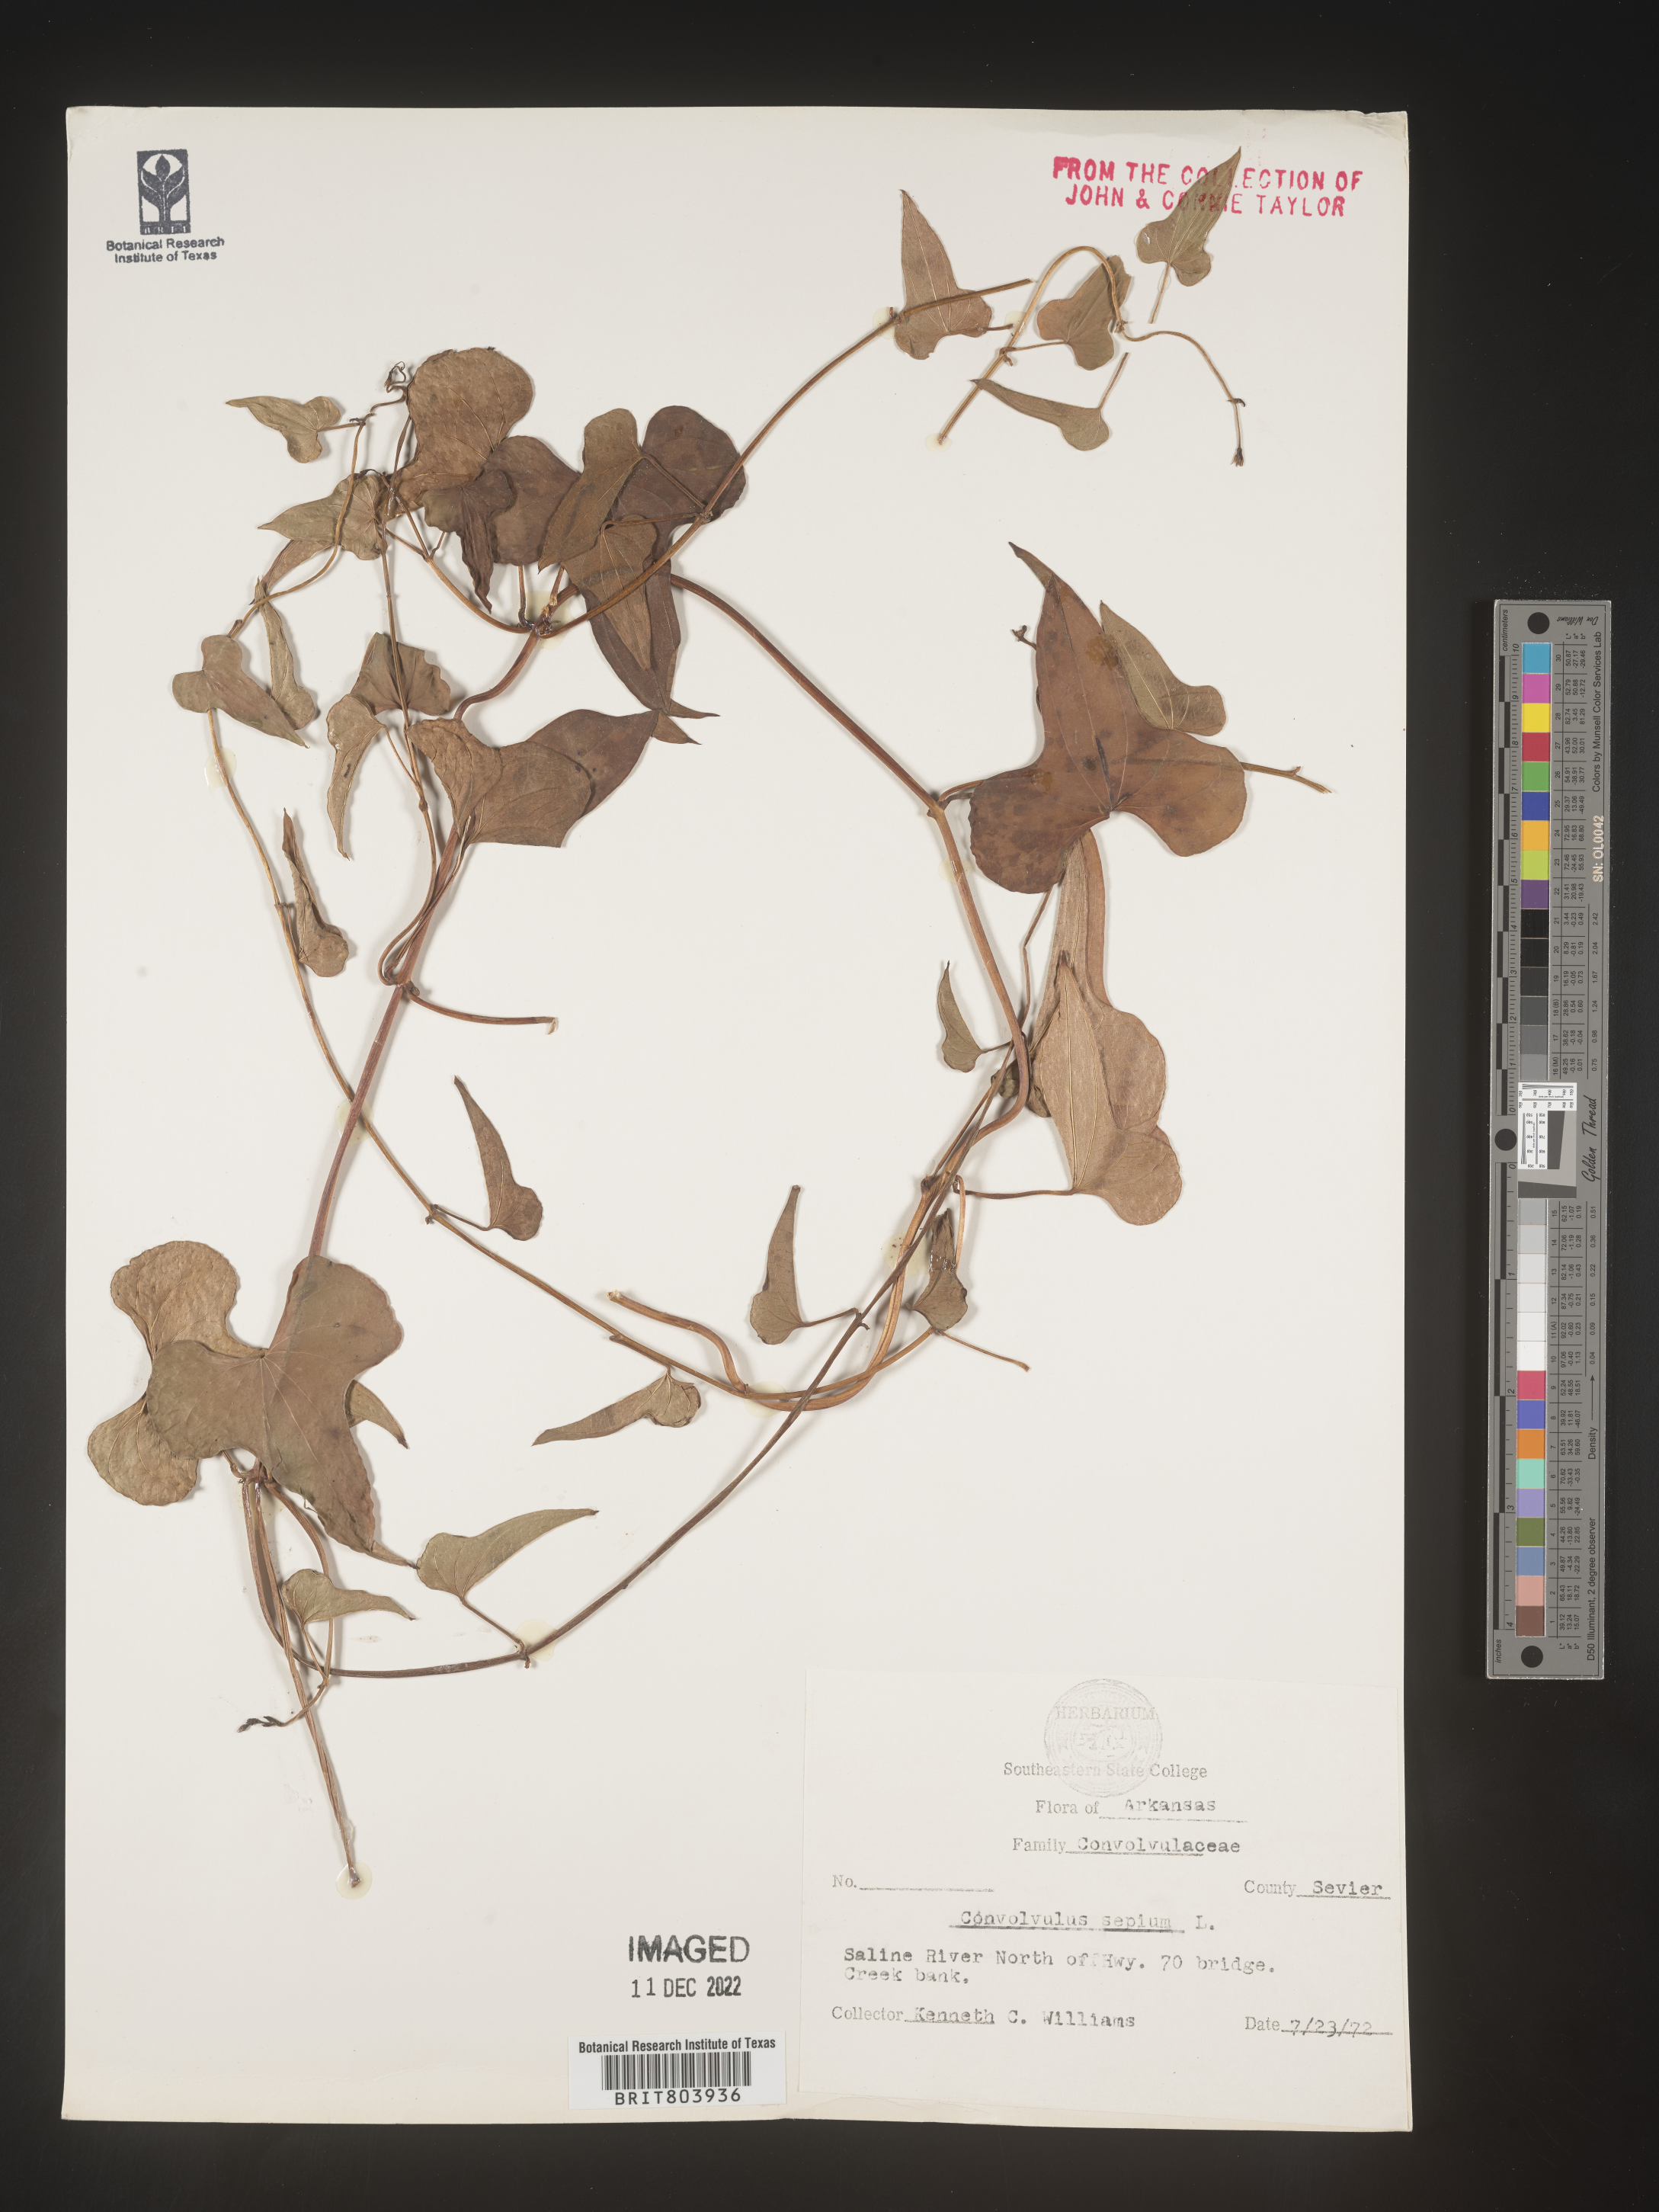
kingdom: Plantae
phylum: Tracheophyta
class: Magnoliopsida
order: Solanales
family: Convolvulaceae
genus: Calystegia
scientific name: Calystegia sepium
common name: Hedge bindweed
